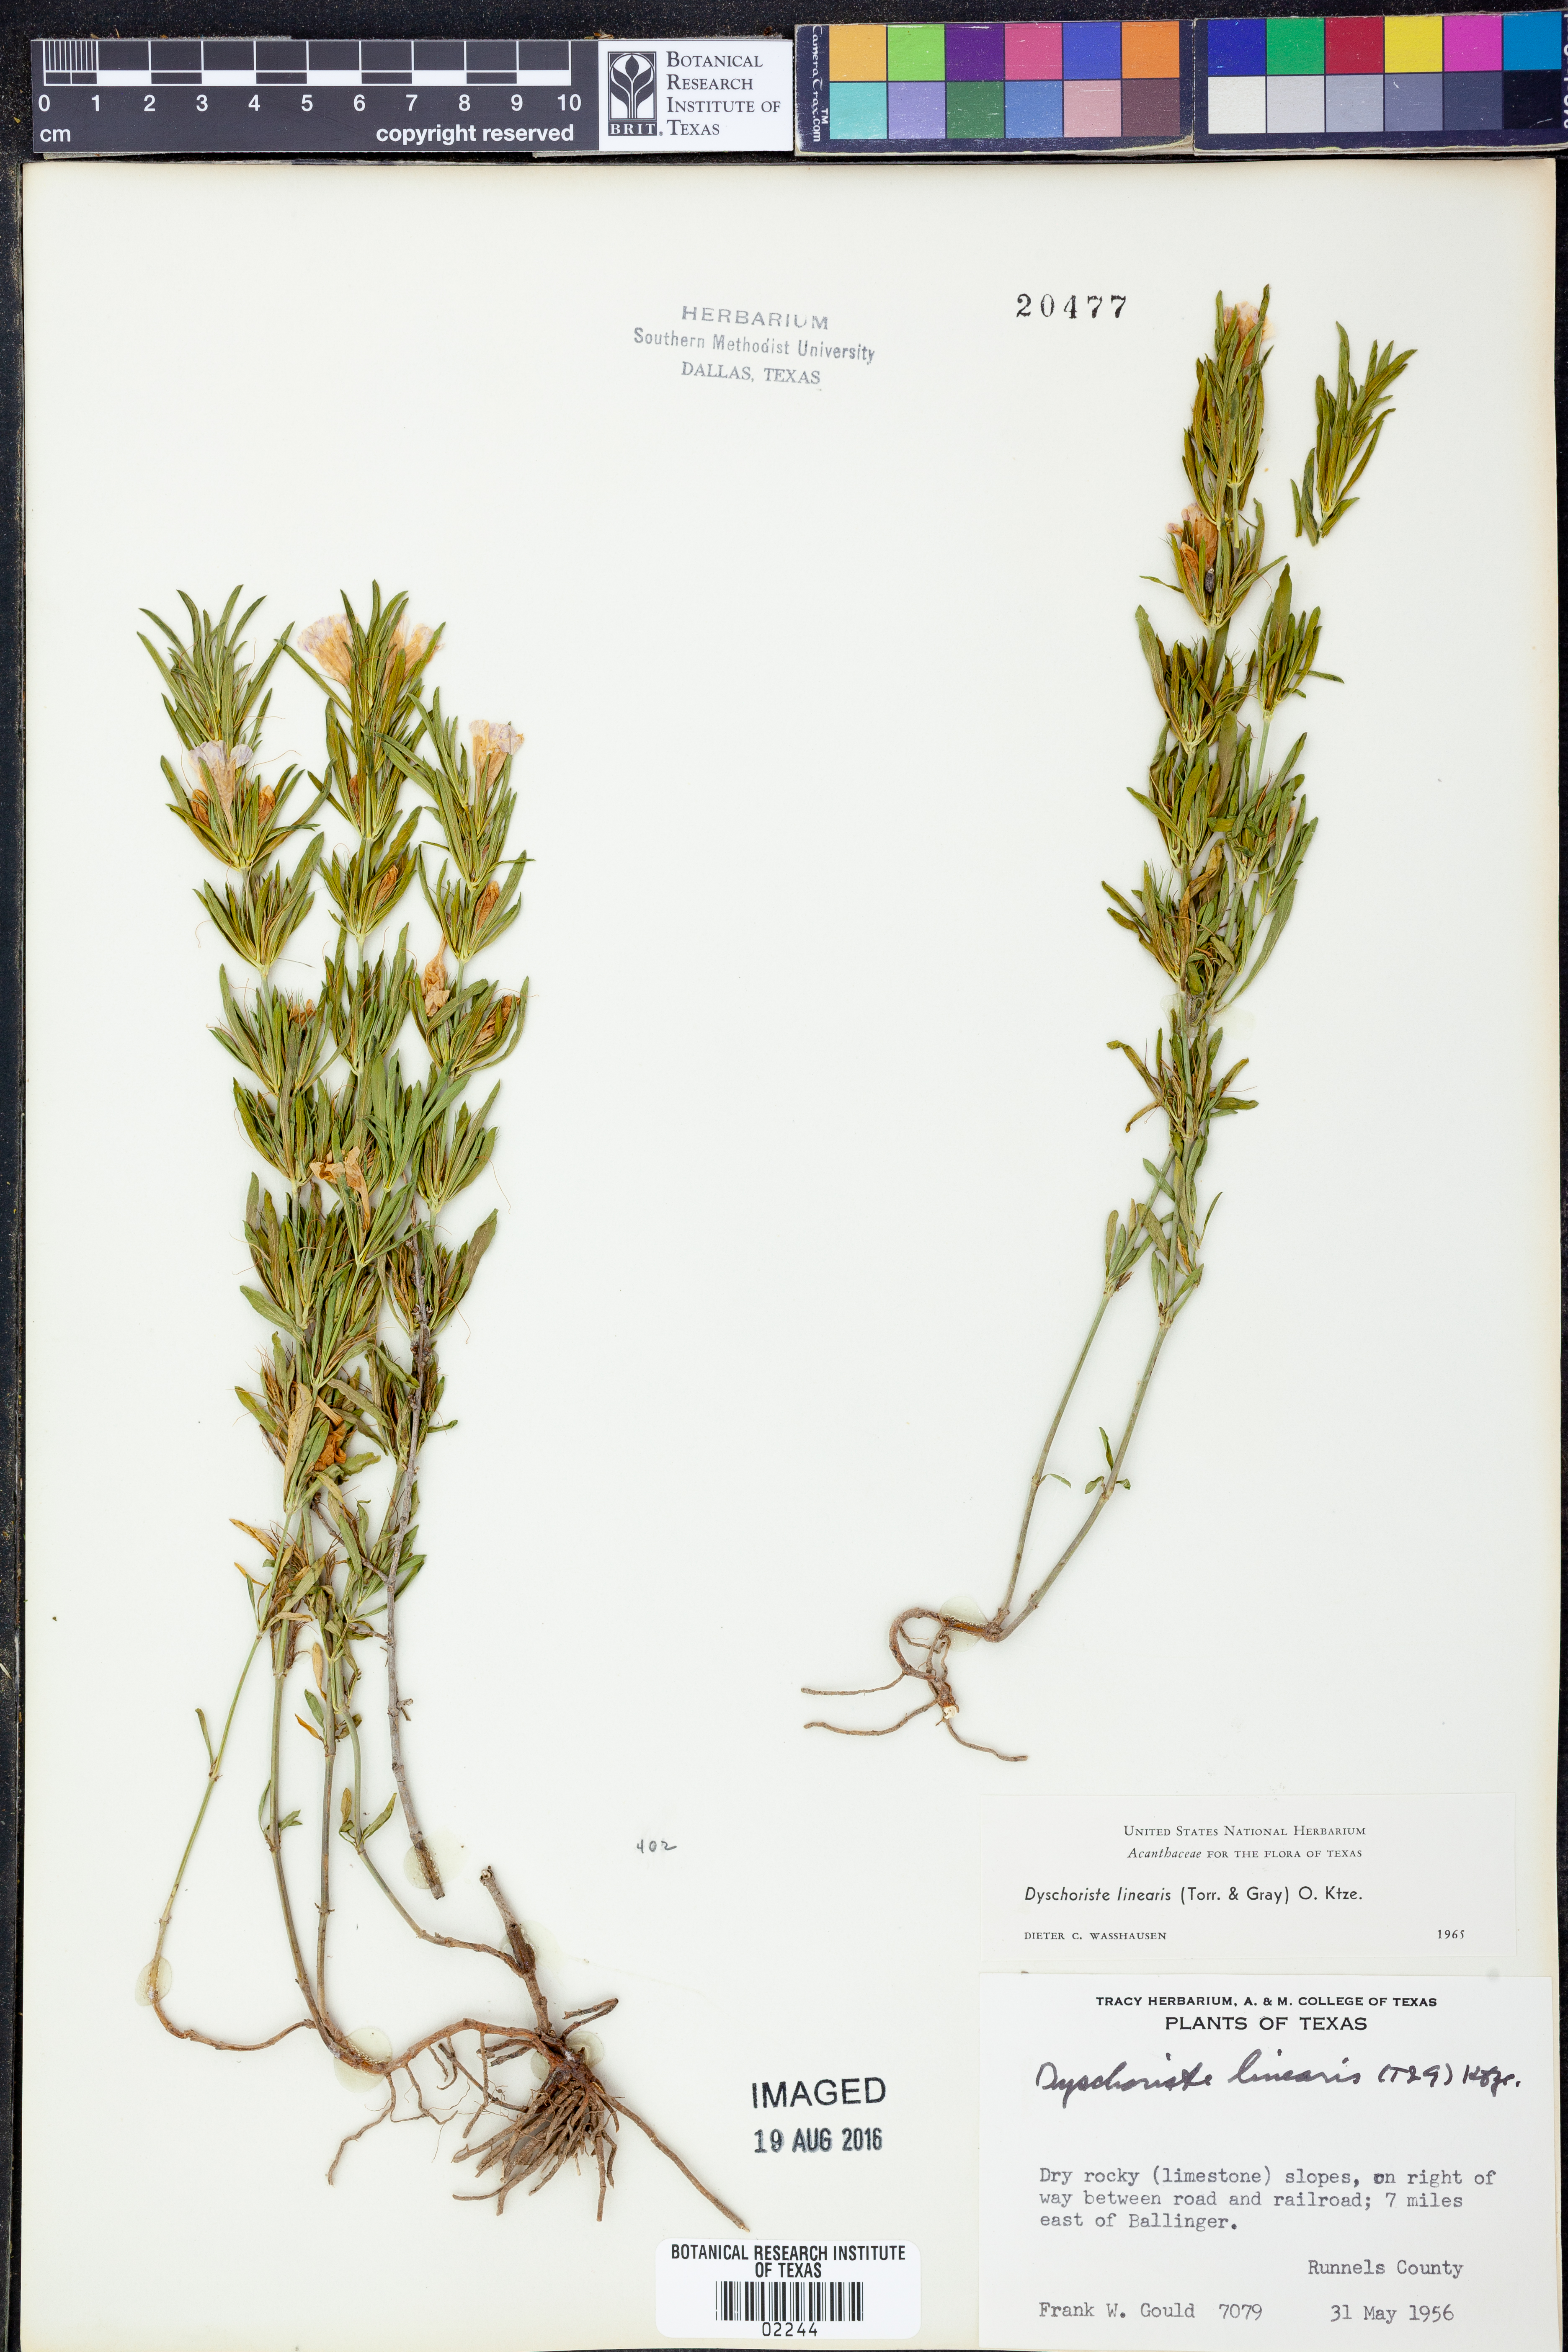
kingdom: Plantae
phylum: Tracheophyta
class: Magnoliopsida
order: Lamiales
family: Acanthaceae
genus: Dyschoriste
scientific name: Dyschoriste linearis
